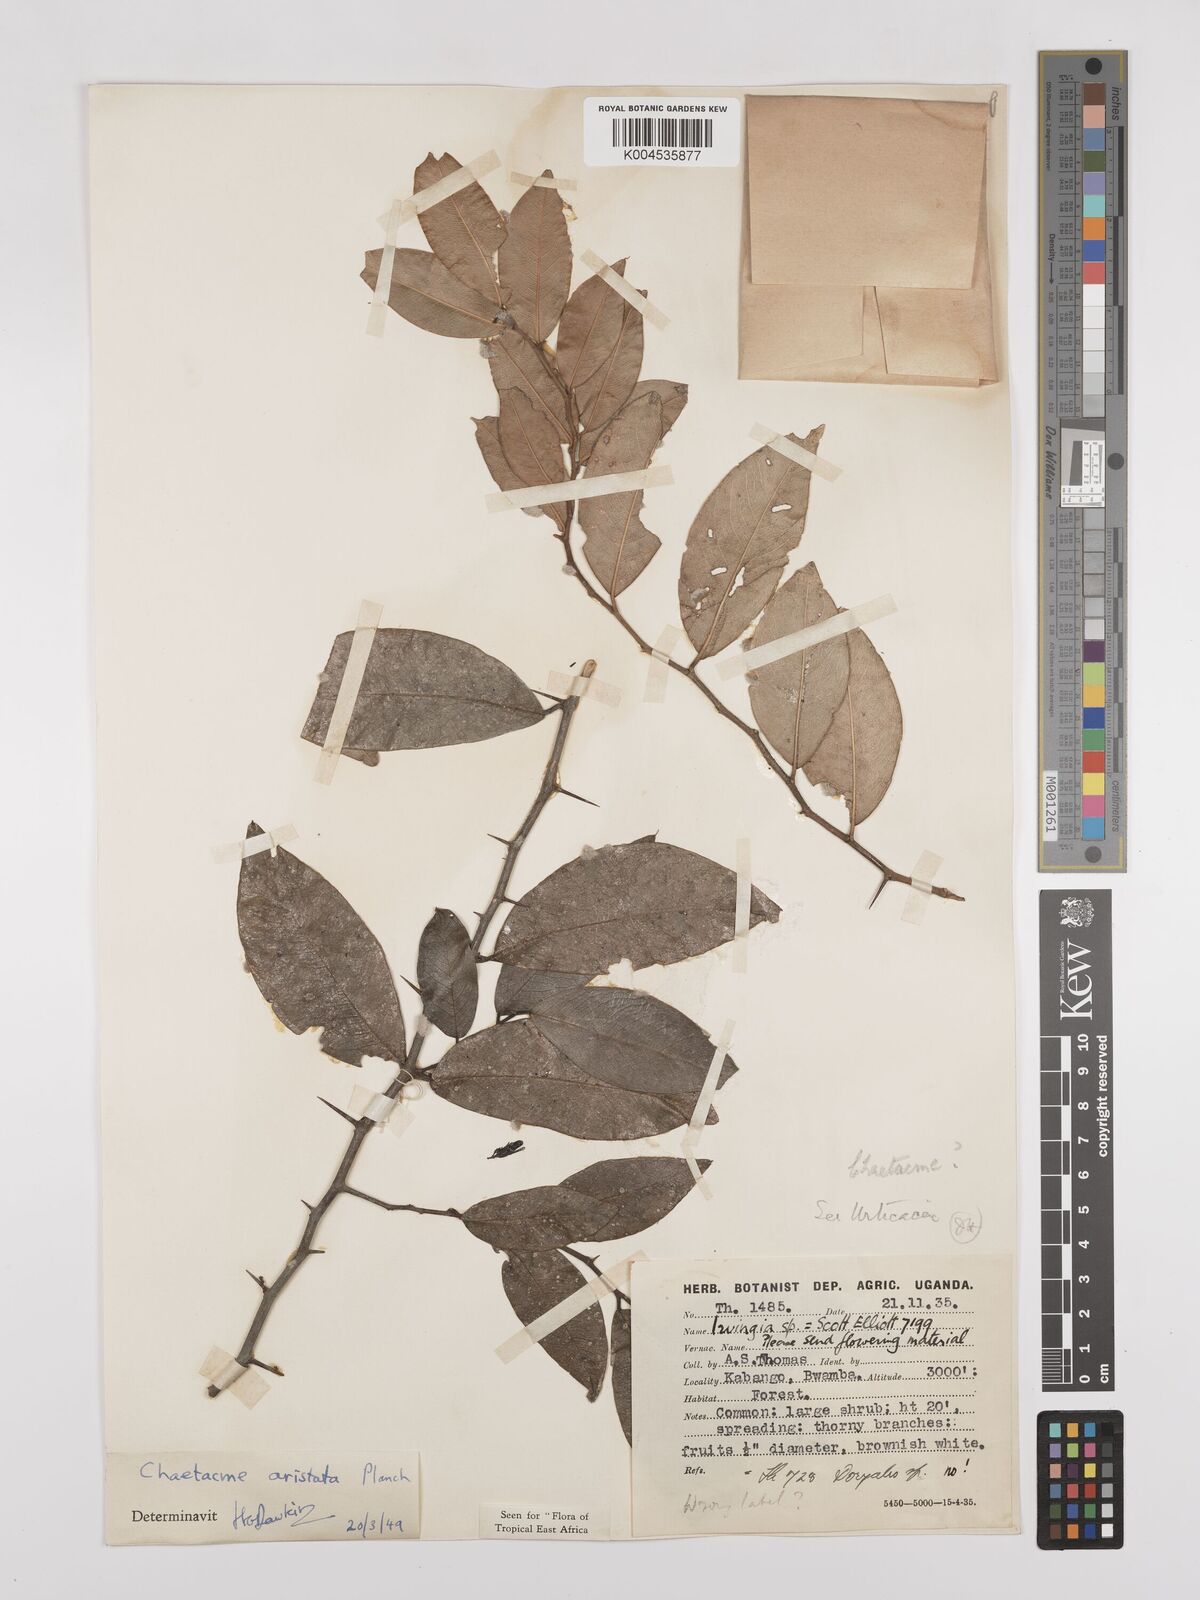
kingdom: Plantae
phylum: Tracheophyta
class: Magnoliopsida
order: Rosales
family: Cannabaceae
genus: Chaetachme
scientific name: Chaetachme aristata
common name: Thorny elm
